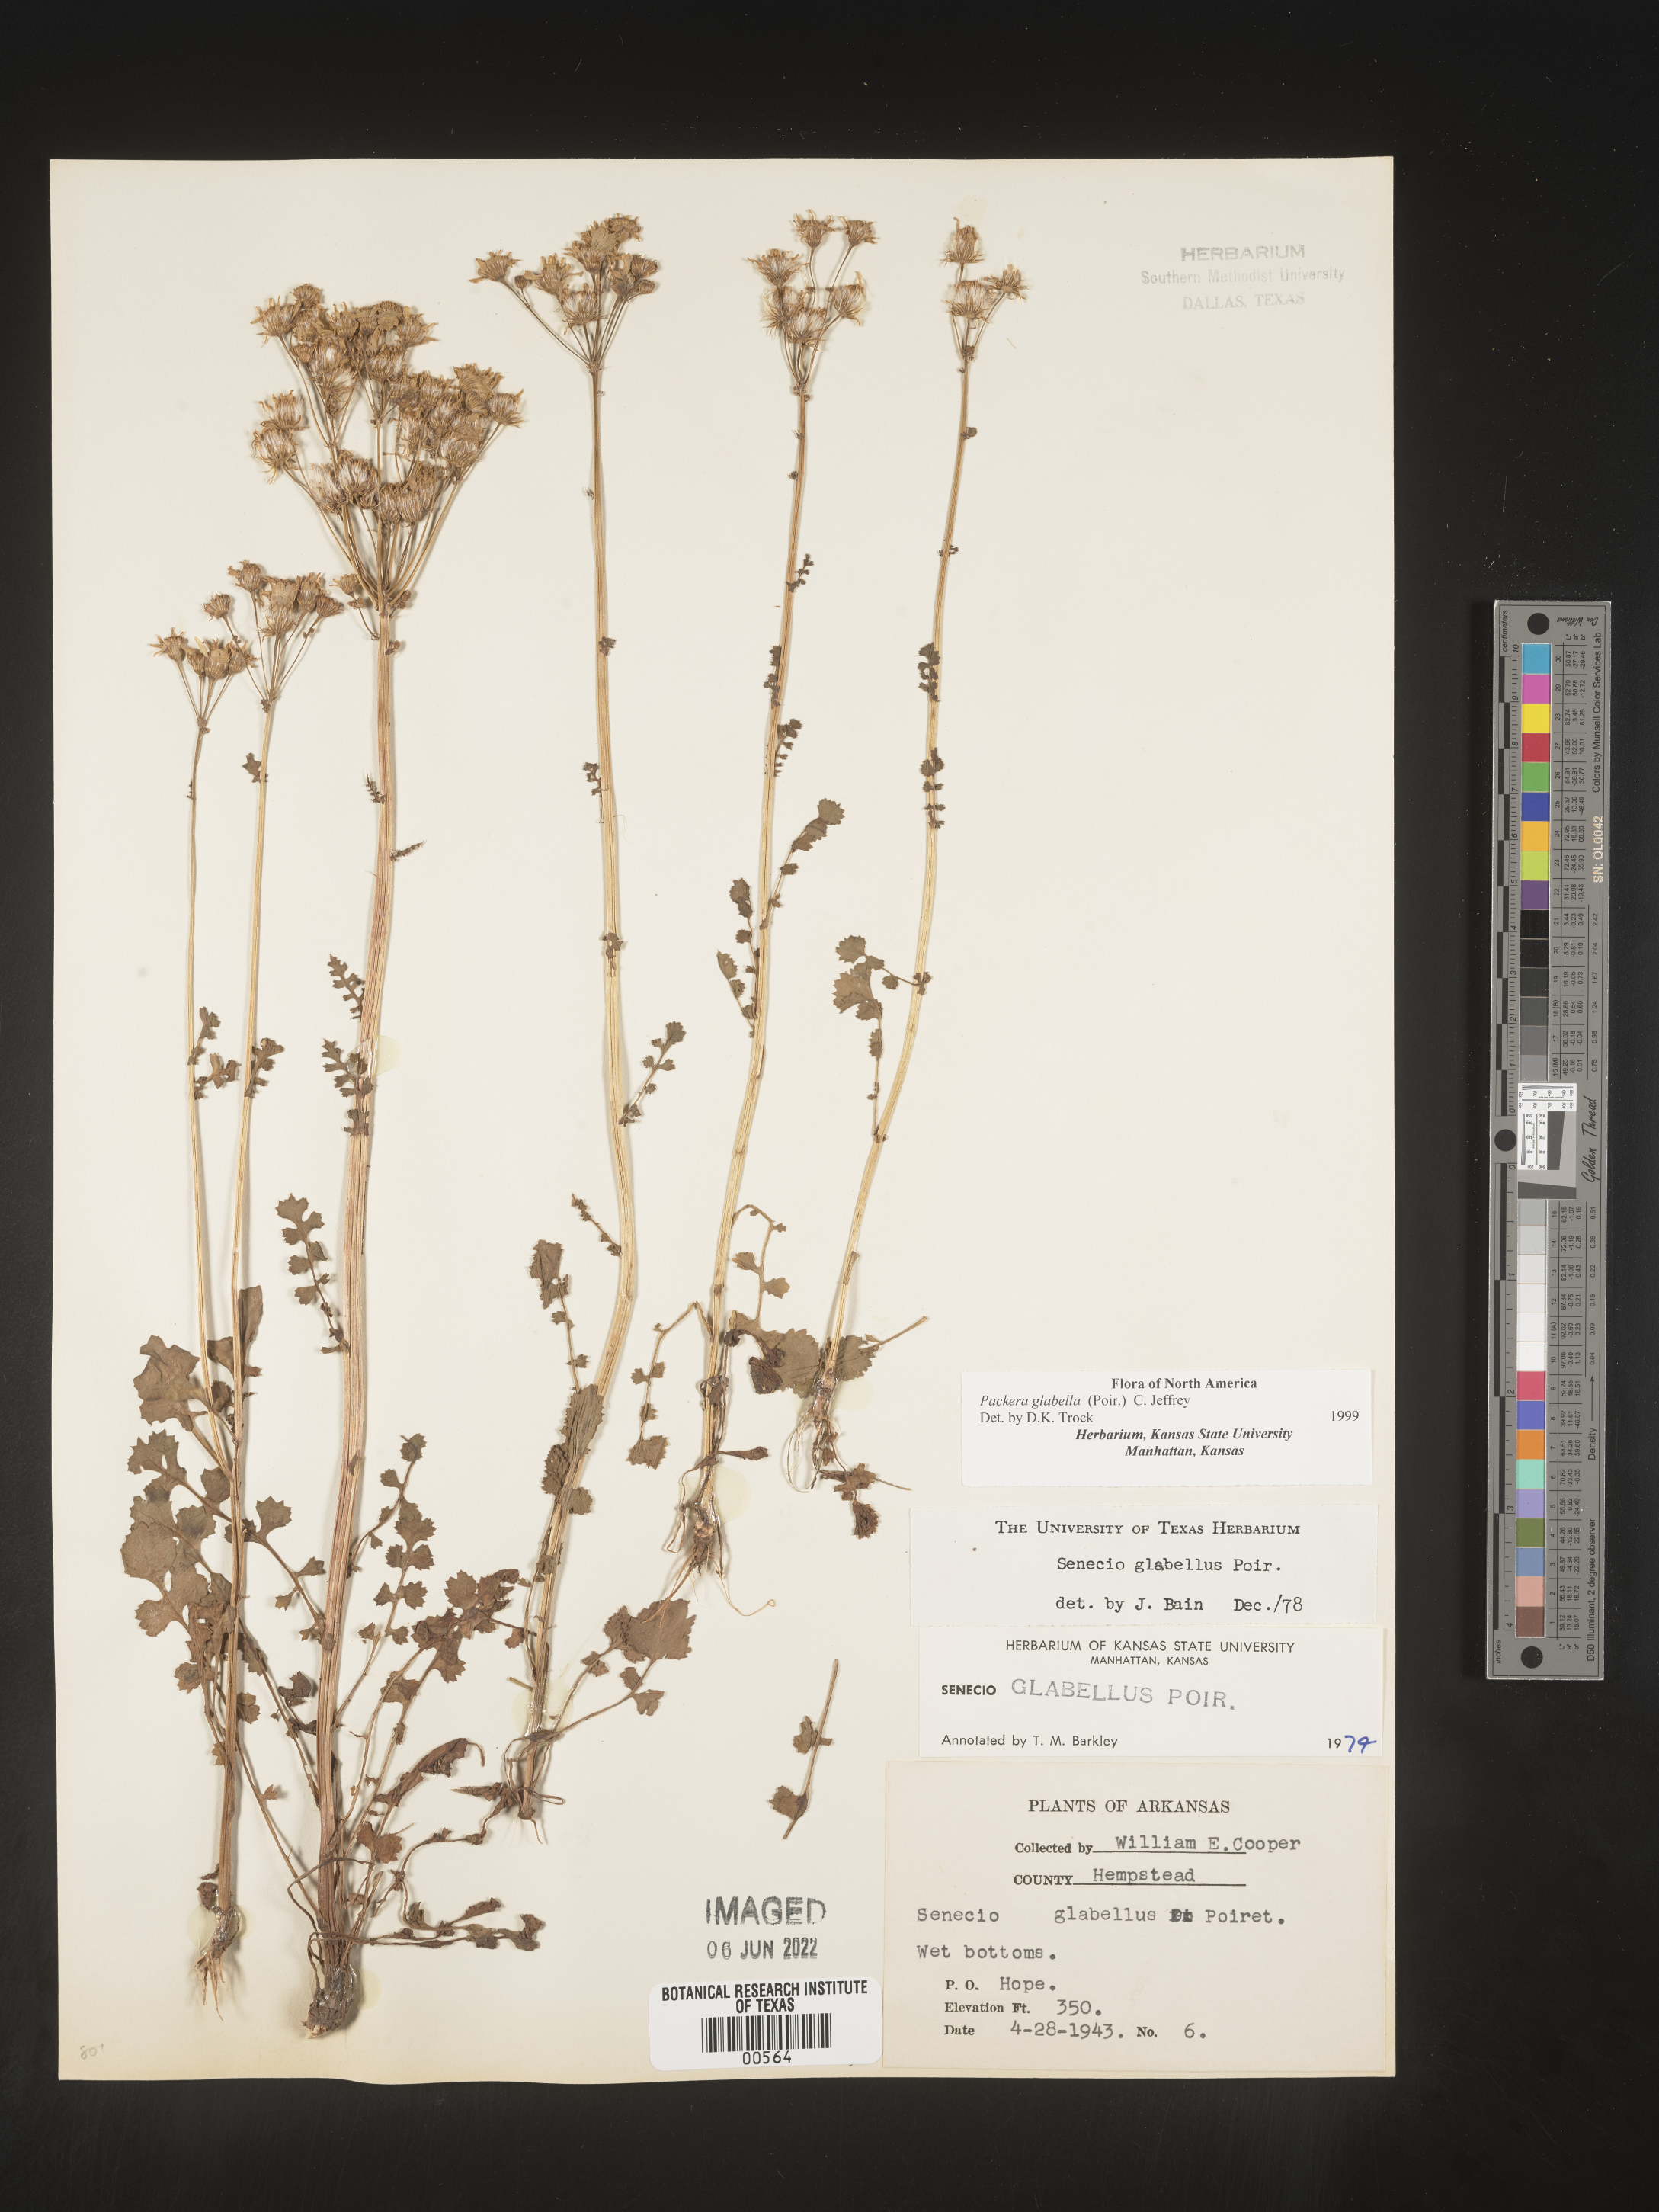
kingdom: Plantae
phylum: Tracheophyta
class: Magnoliopsida
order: Asterales
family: Asteraceae
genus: Packera
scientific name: Packera glabella
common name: Butterweed
